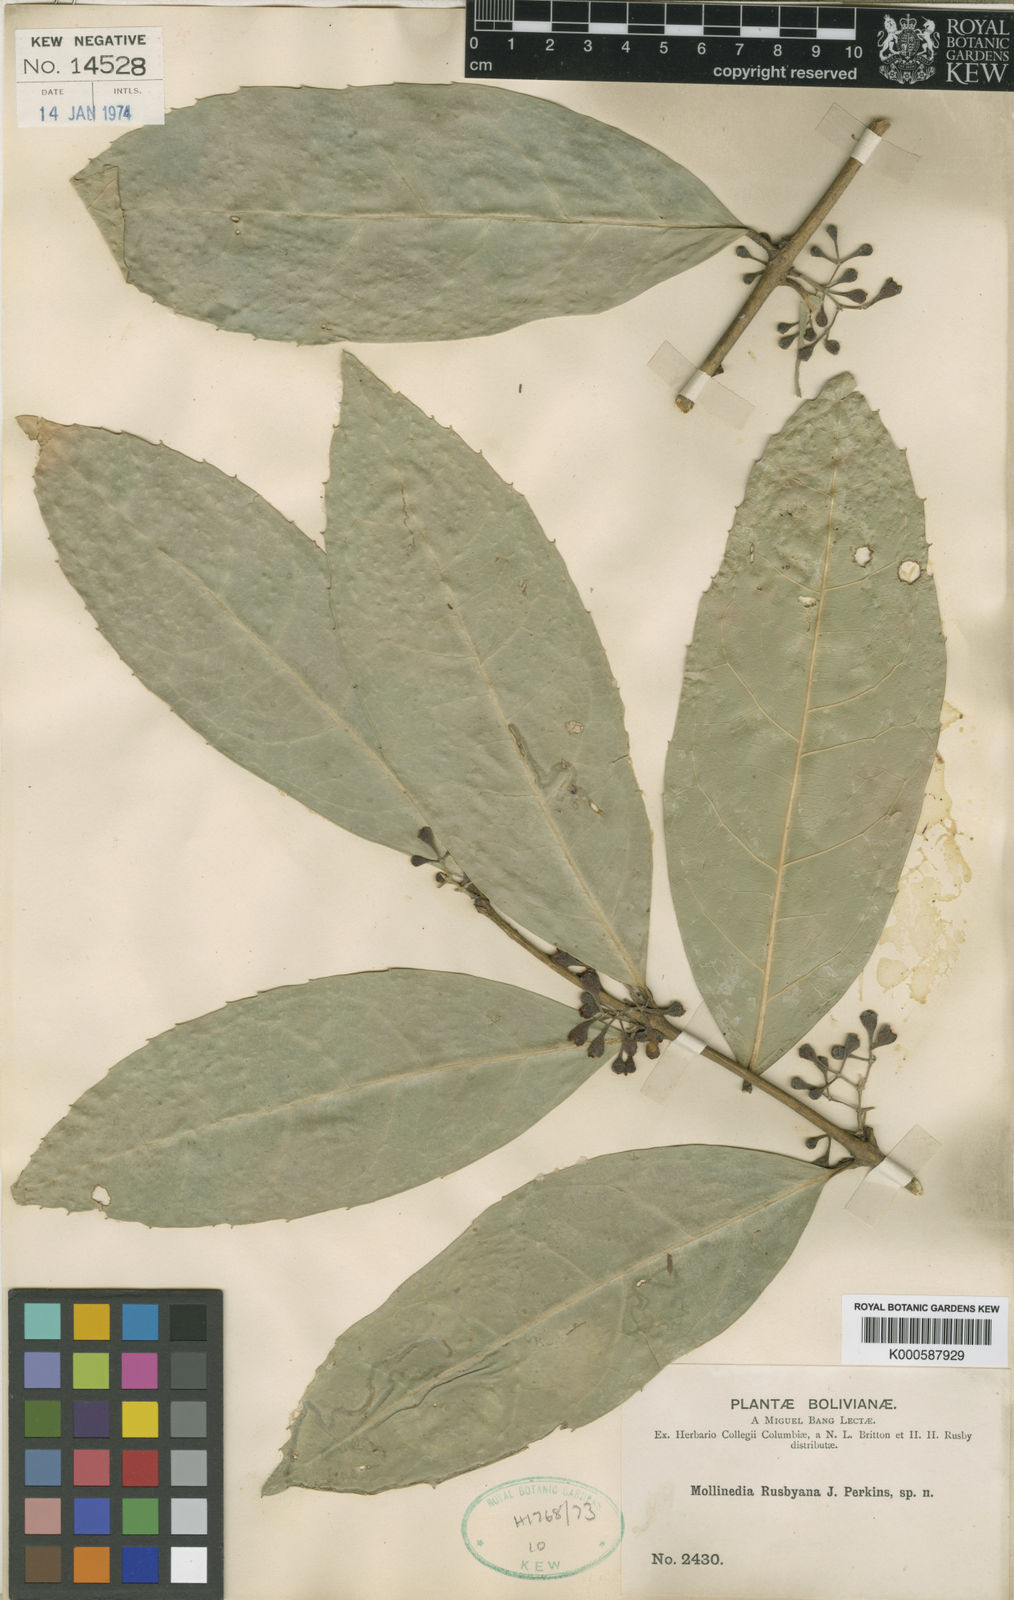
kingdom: Plantae
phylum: Tracheophyta
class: Magnoliopsida
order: Laurales
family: Monimiaceae
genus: Mollinedia
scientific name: Mollinedia ovata
